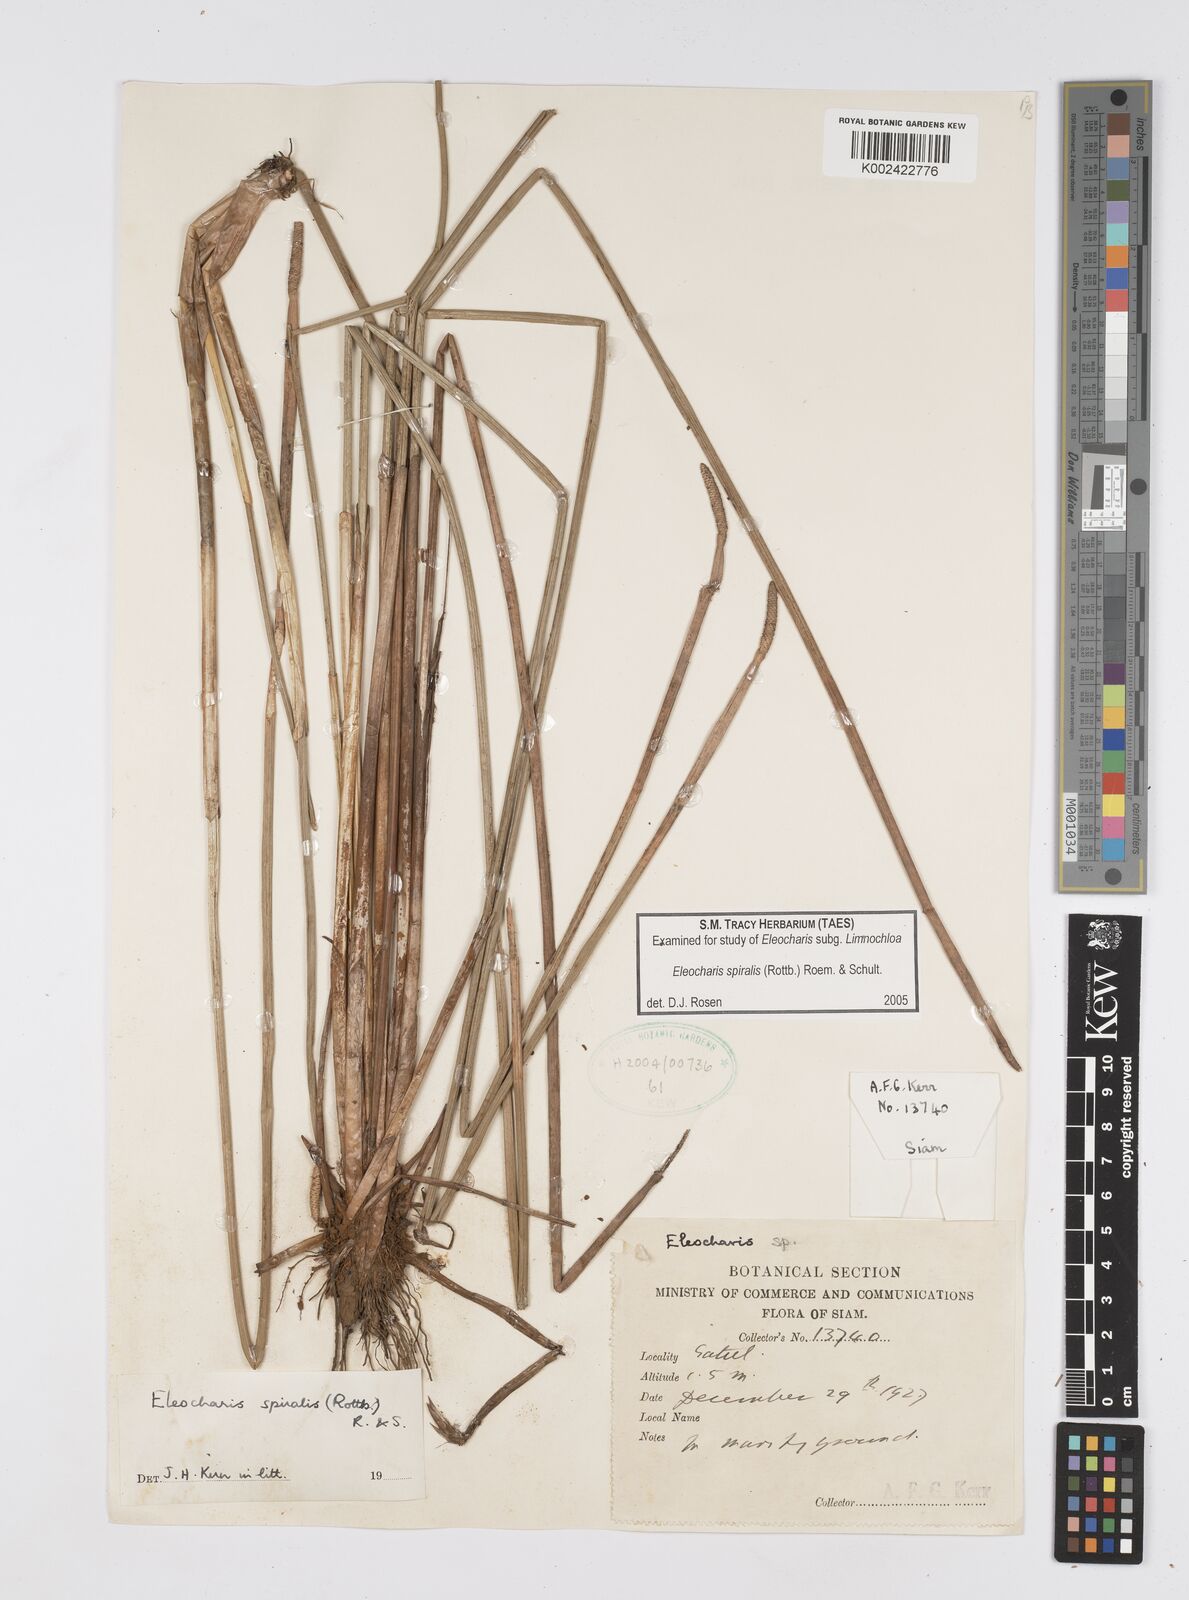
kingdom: Plantae
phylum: Tracheophyta
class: Liliopsida
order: Poales
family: Cyperaceae
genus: Eleocharis
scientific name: Eleocharis spiralis
